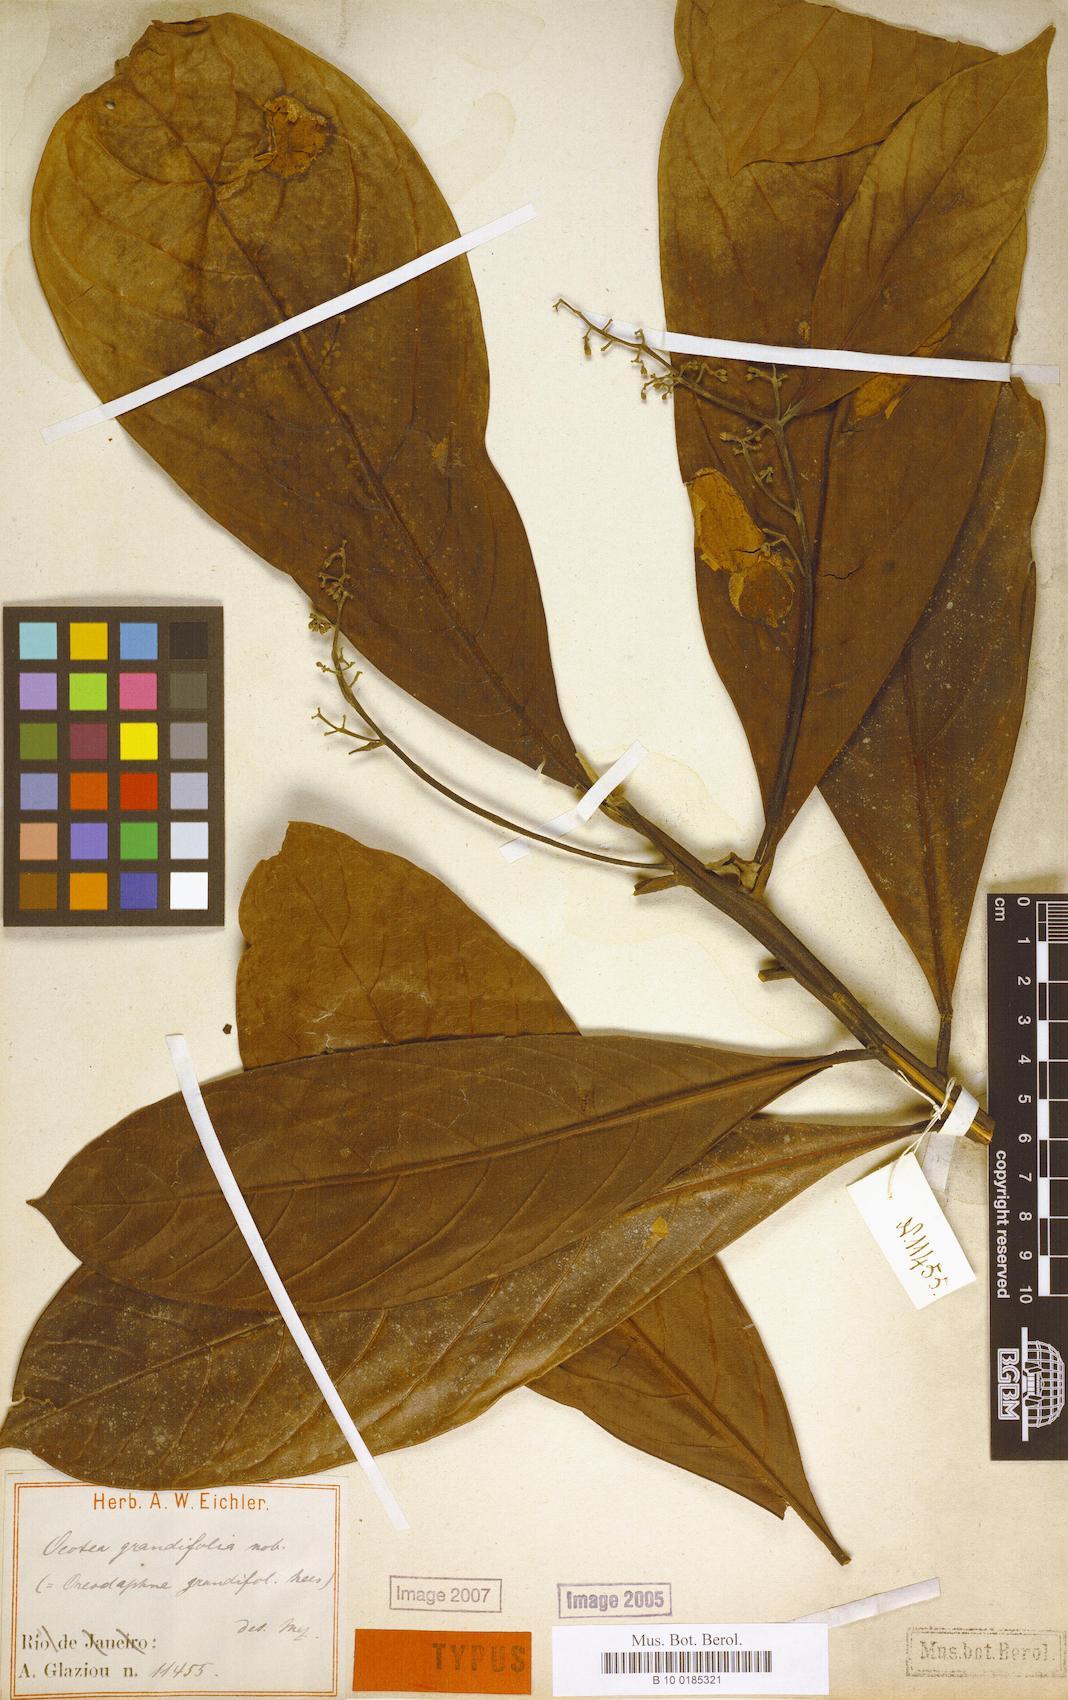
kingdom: Plantae
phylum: Tracheophyta
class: Magnoliopsida
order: Laurales
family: Lauraceae
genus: Mespilodaphne
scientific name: Mespilodaphne opifera
